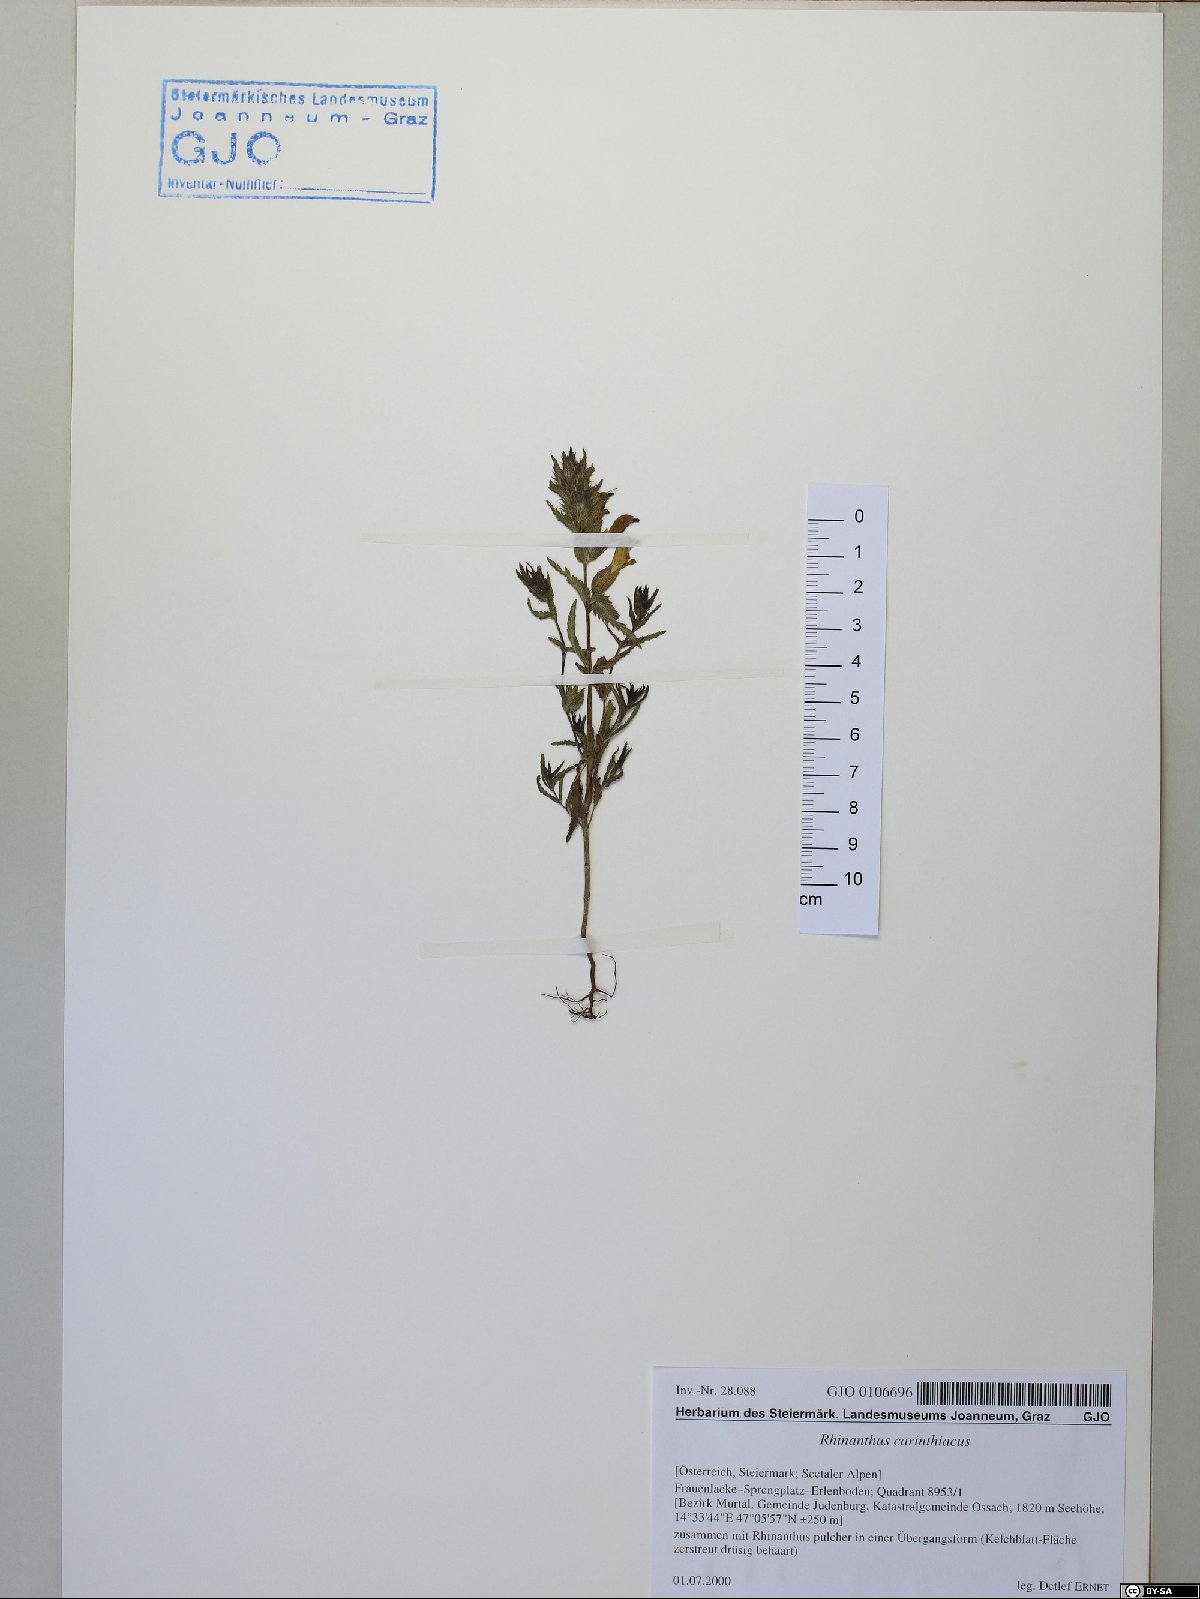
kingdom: Plantae
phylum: Tracheophyta
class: Magnoliopsida
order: Lamiales
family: Orobanchaceae
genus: Rhinanthus
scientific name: Rhinanthus carinthiacus
